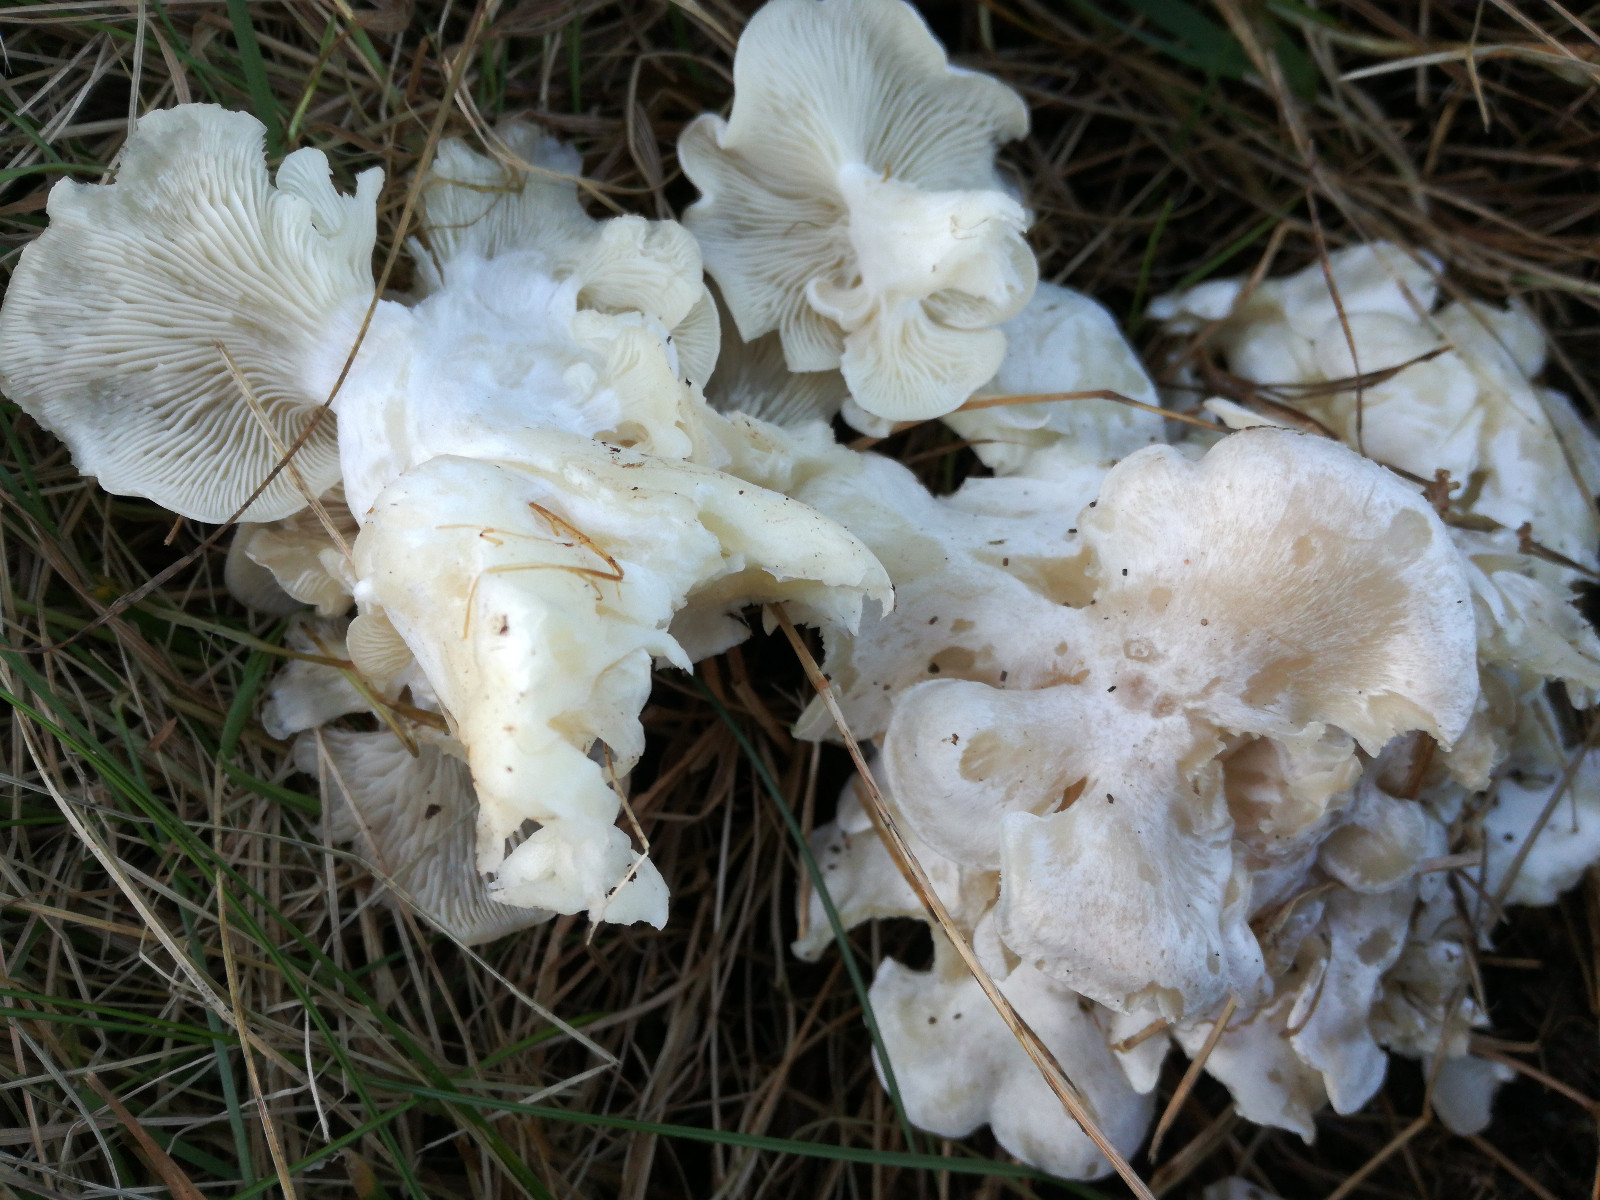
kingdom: Fungi
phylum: Basidiomycota
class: Agaricomycetes
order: Agaricales
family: Tricholomataceae
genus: Leucocybe
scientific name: Leucocybe connata
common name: knippe-tragthat
